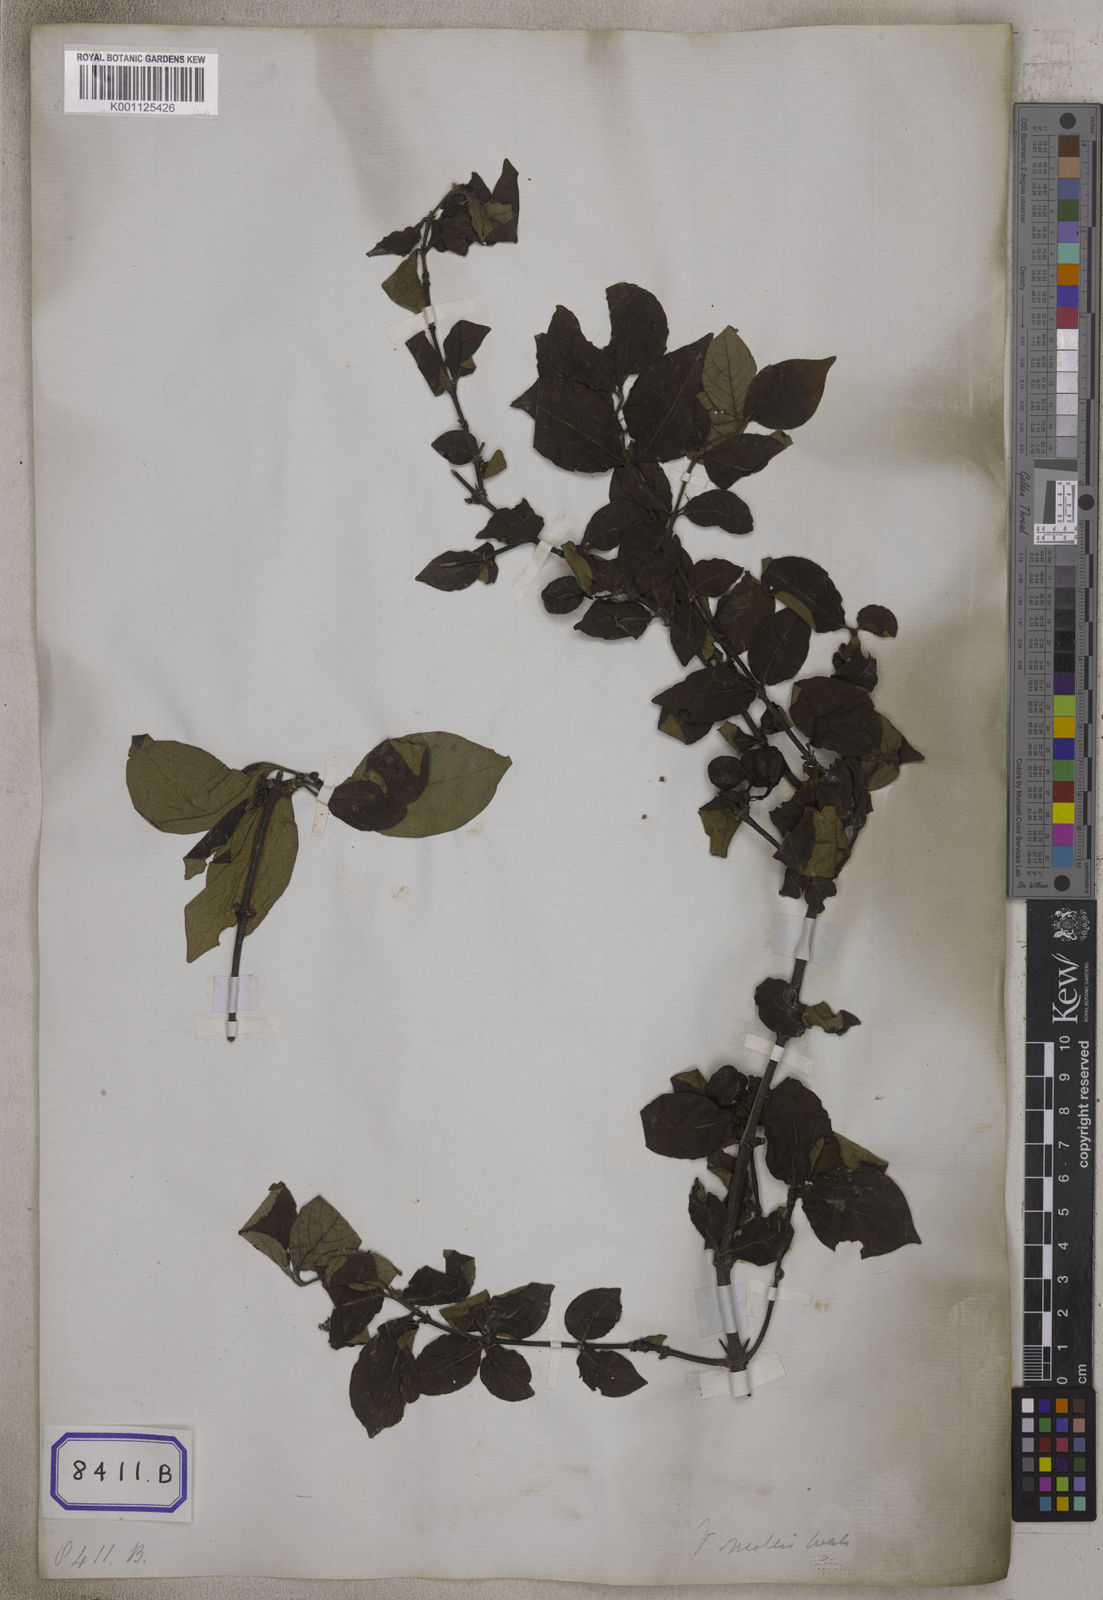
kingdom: Plantae
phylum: Tracheophyta
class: Magnoliopsida
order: Gentianales
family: Rubiaceae
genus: Meyna
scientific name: Meyna spinosa
